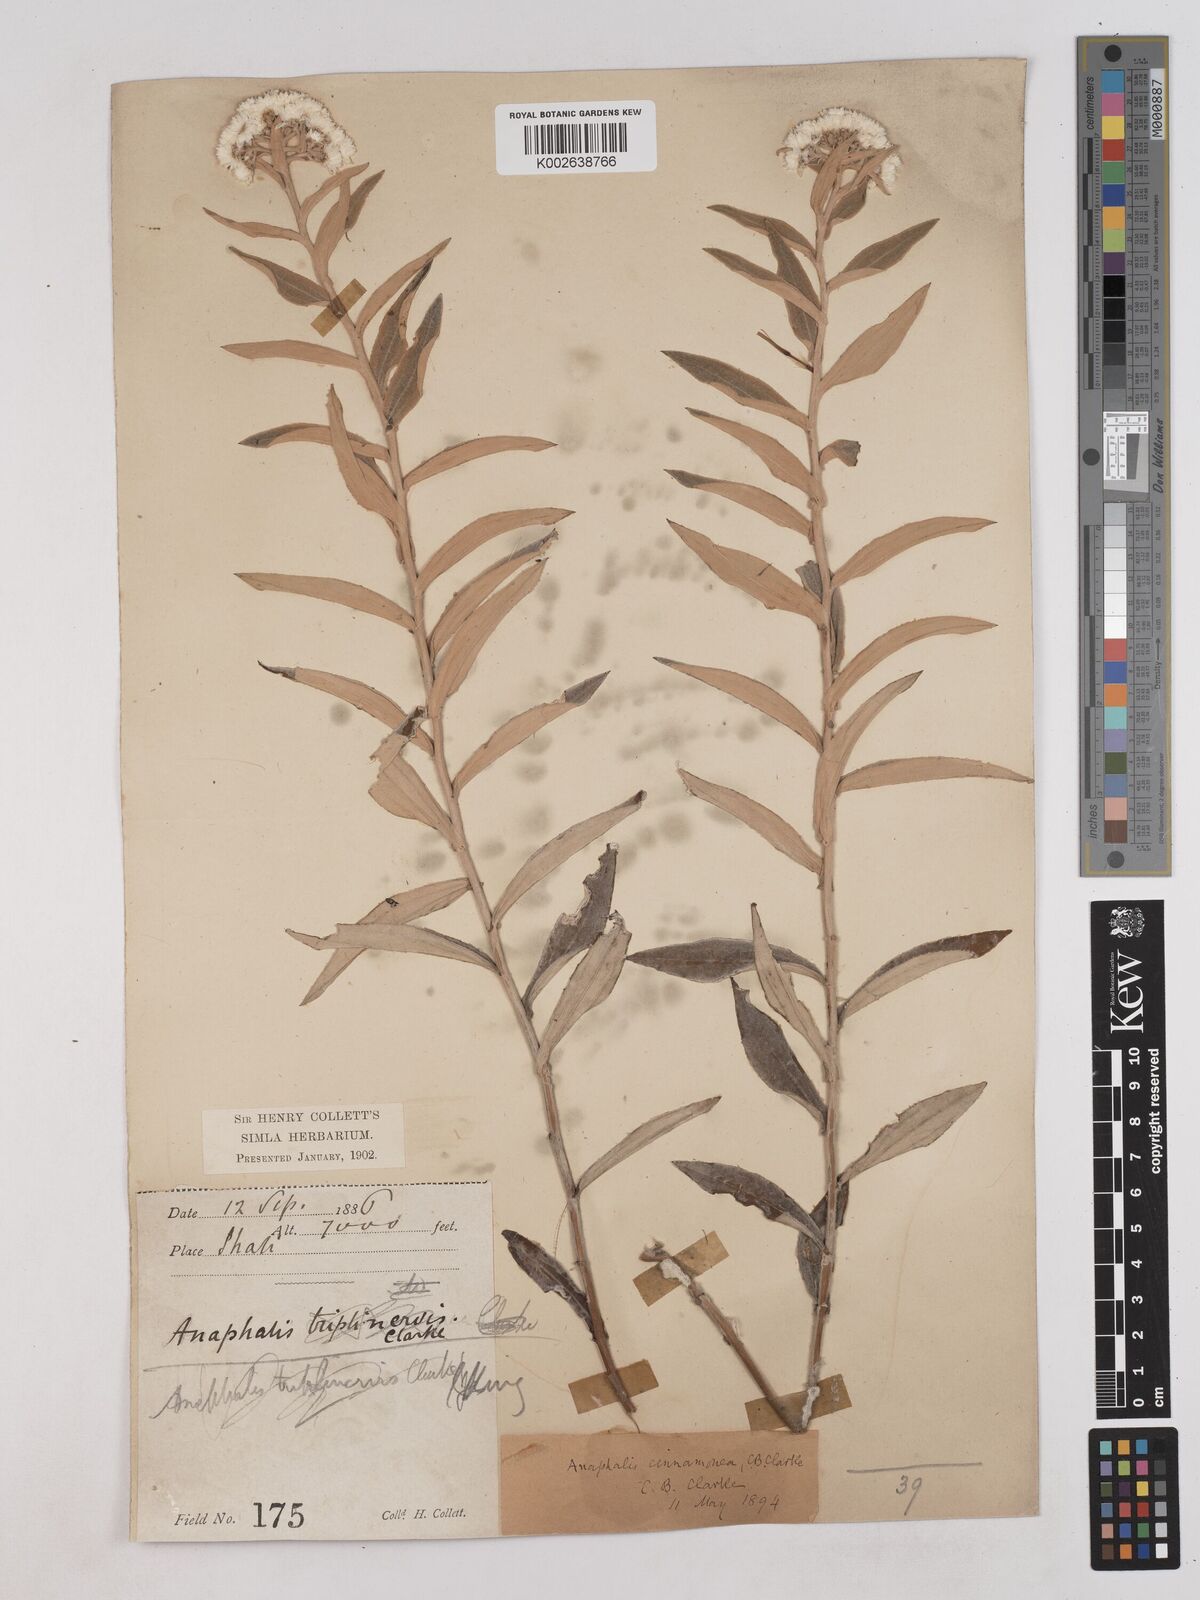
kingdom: Plantae
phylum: Tracheophyta
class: Magnoliopsida
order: Asterales
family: Asteraceae
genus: Anaphalis
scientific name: Anaphalis marcescens
